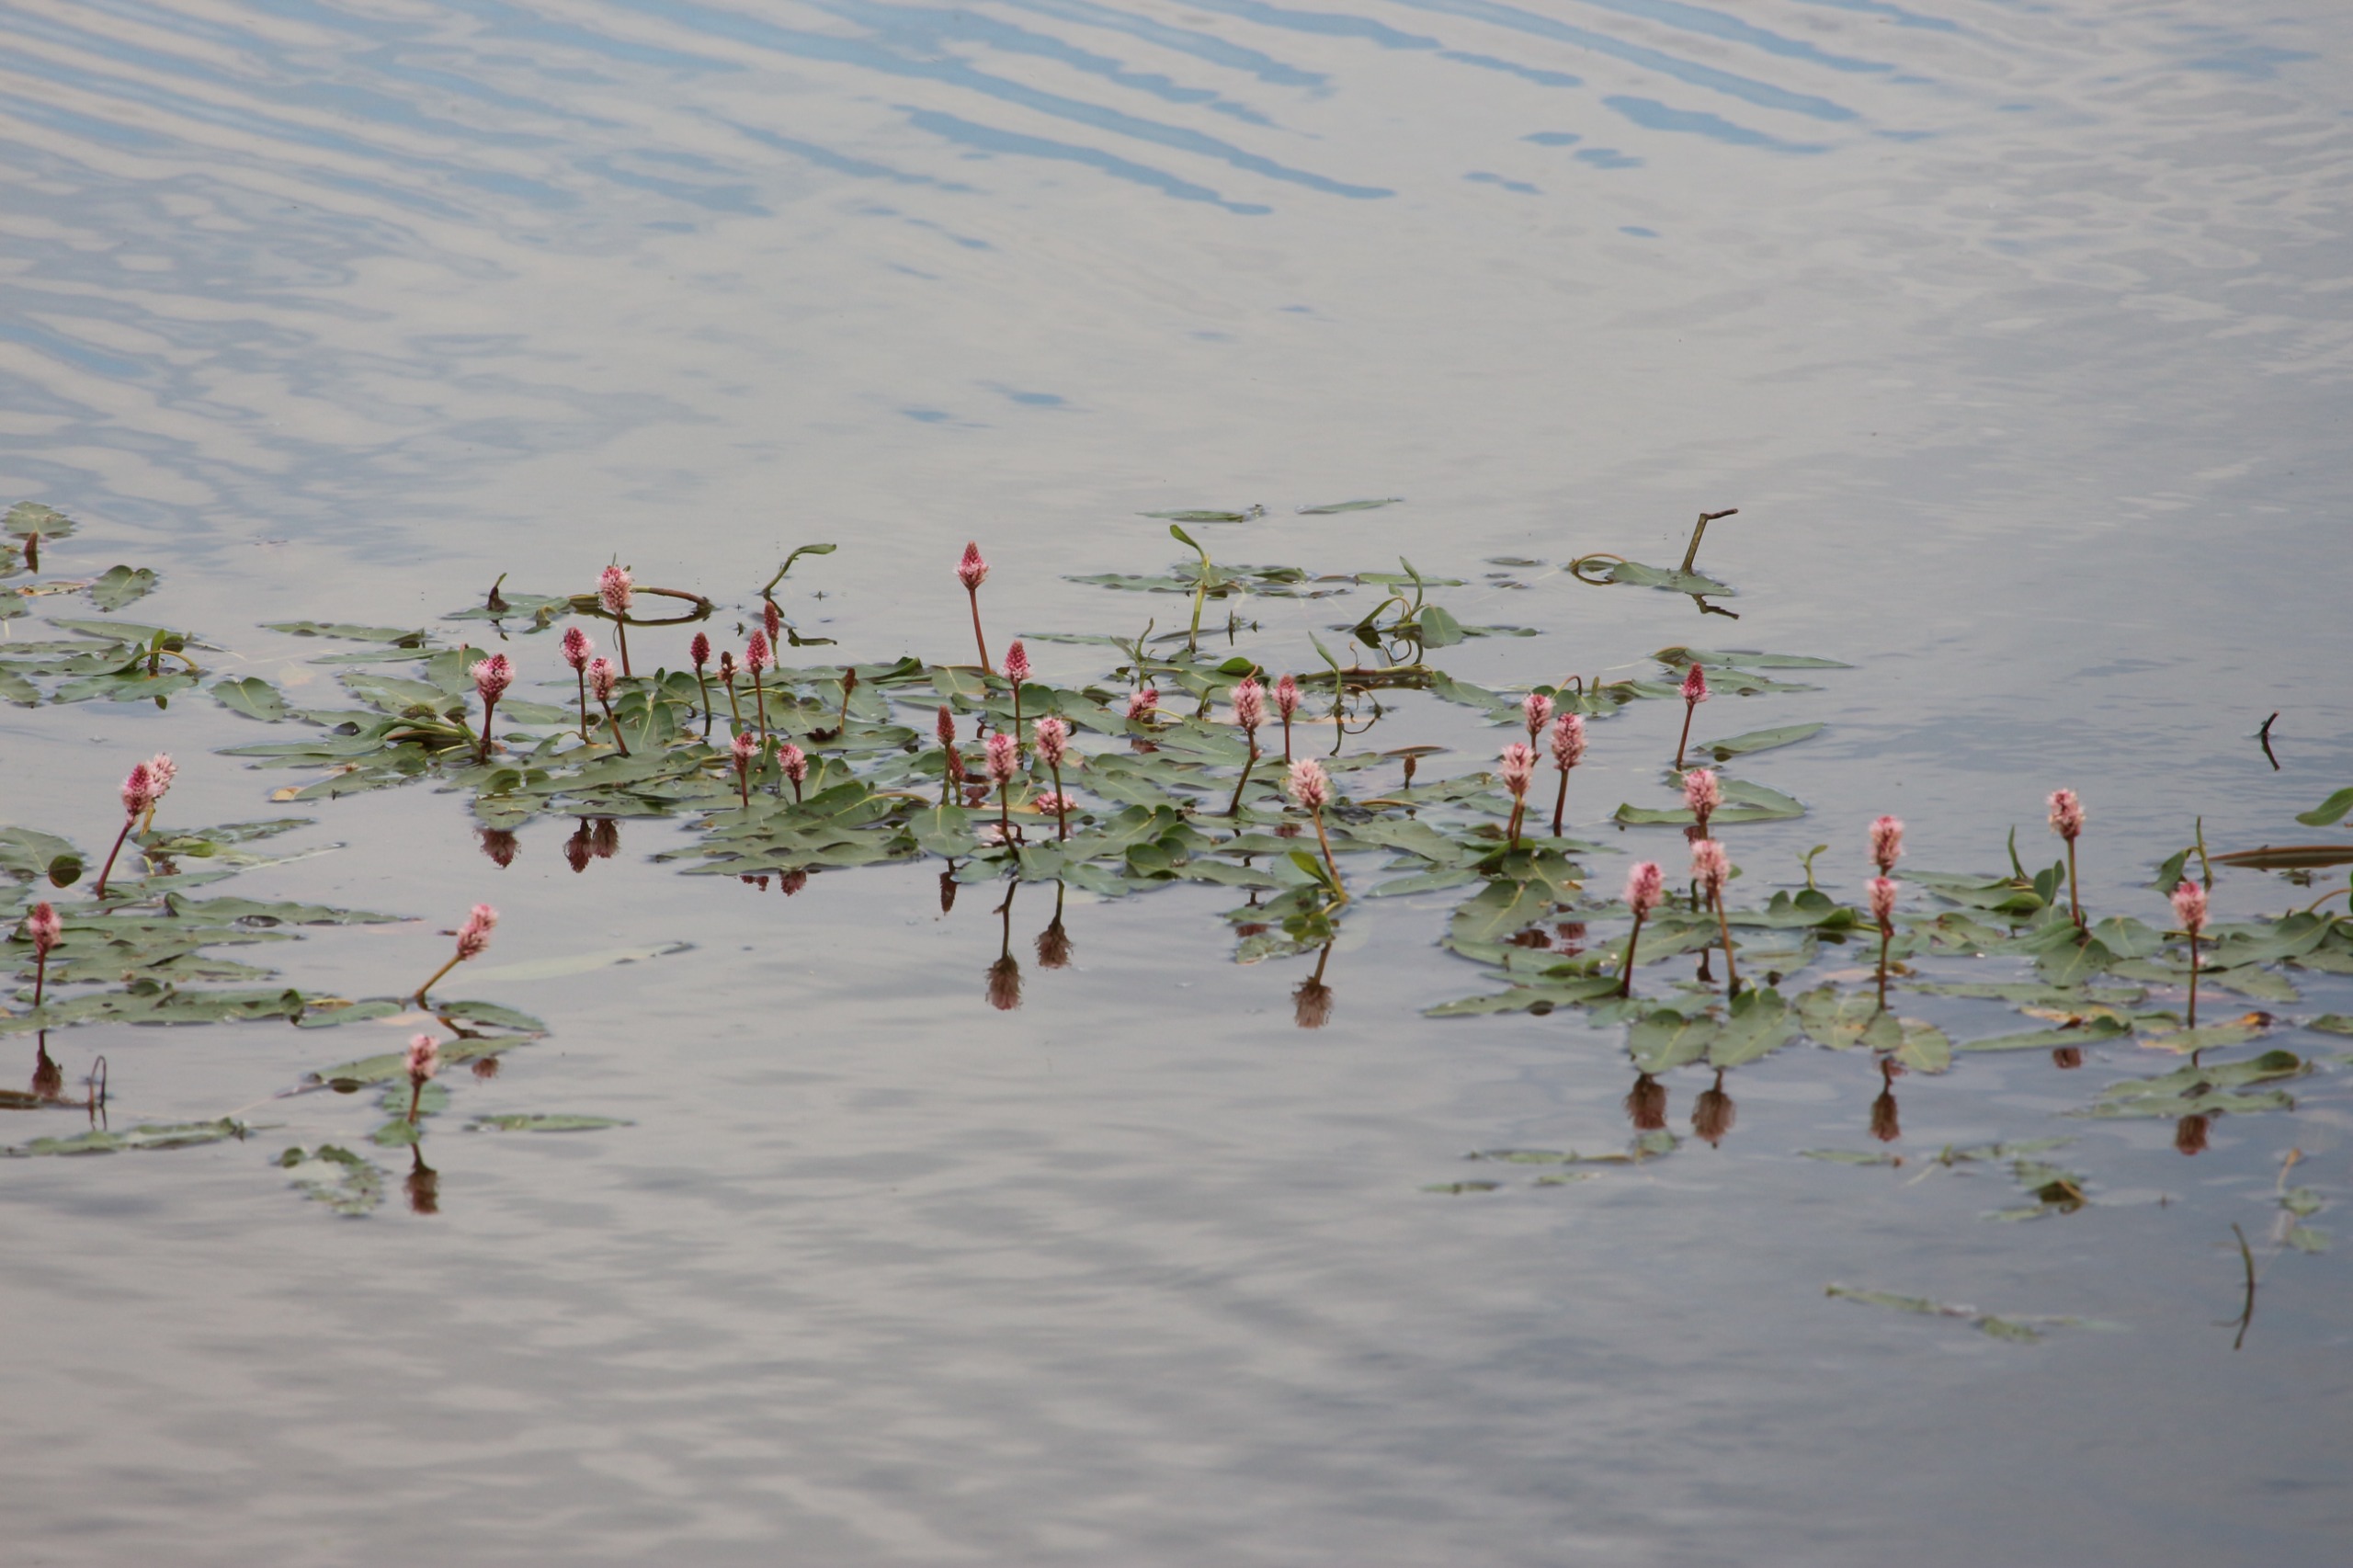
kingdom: Plantae
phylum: Tracheophyta
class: Magnoliopsida
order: Caryophyllales
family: Polygonaceae
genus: Persicaria
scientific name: Persicaria amphibia
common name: Vand-pileurt
